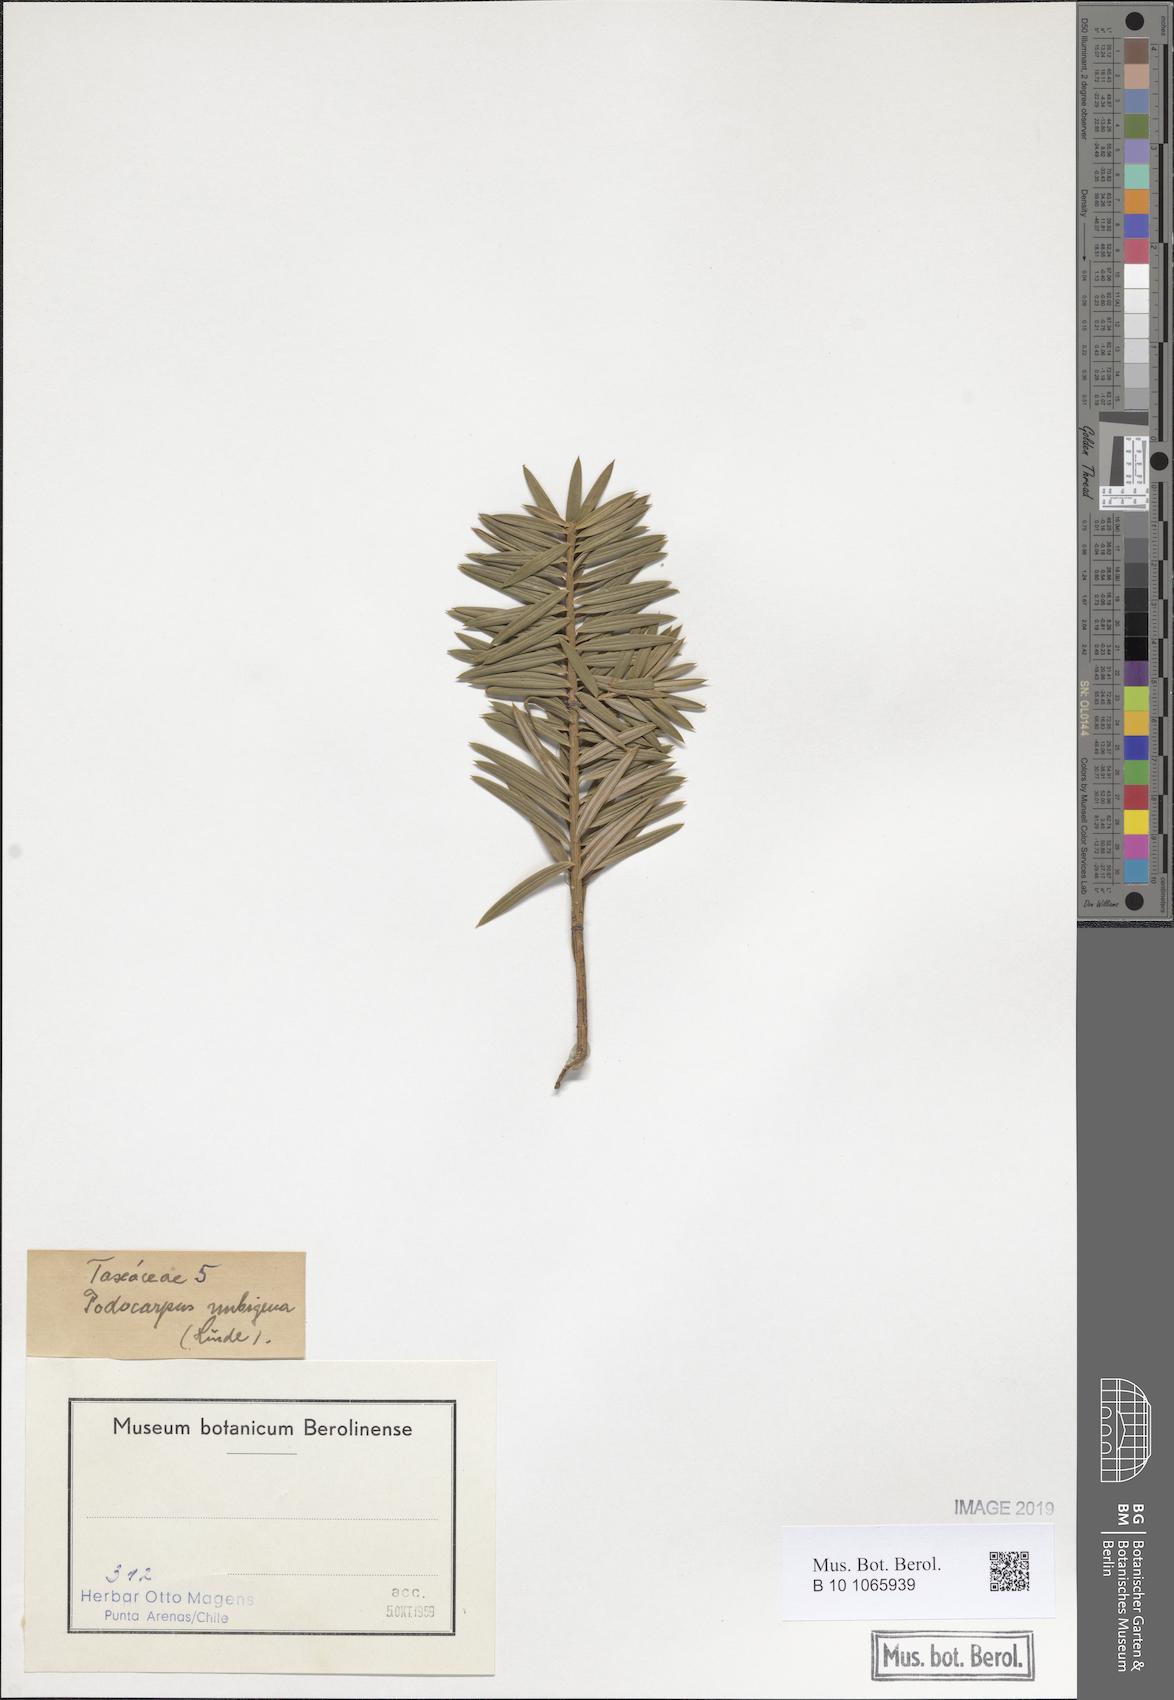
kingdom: Plantae
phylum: Tracheophyta
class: Pinopsida
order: Pinales
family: Podocarpaceae
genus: Podocarpus
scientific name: Podocarpus bracteatus
